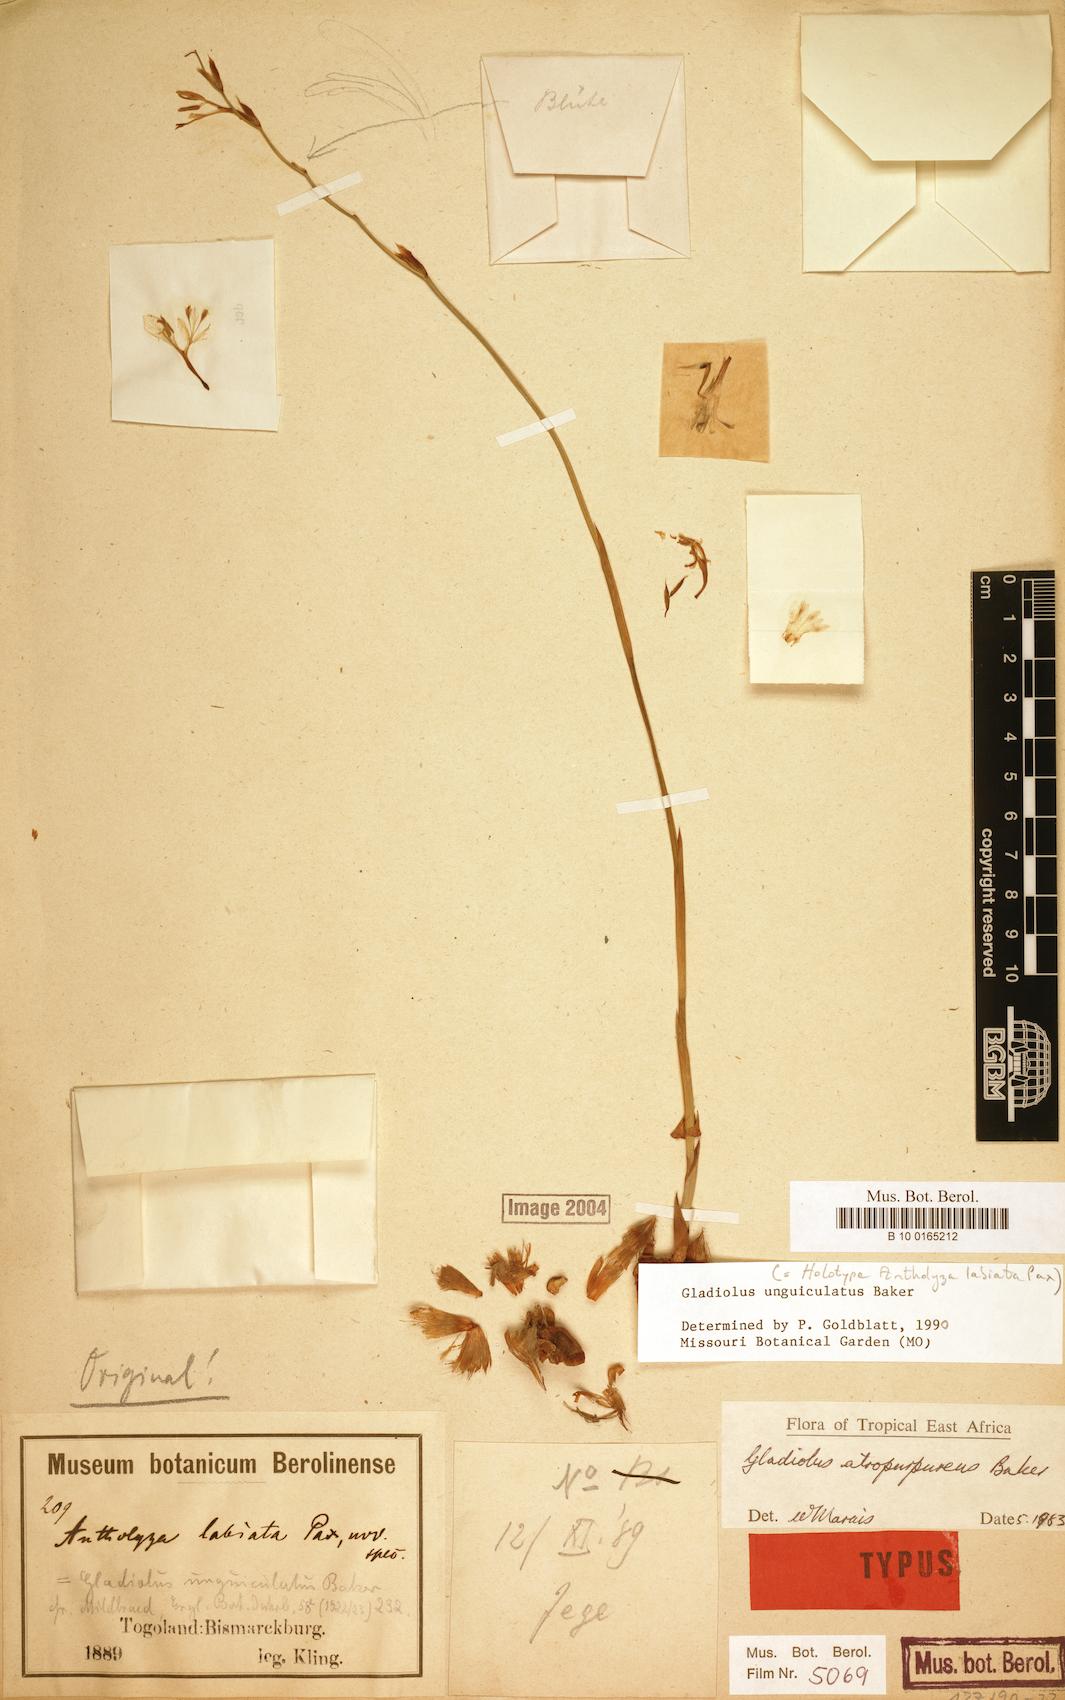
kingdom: Plantae
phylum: Tracheophyta
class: Liliopsida
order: Asparagales
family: Iridaceae
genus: Gladiolus
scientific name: Gladiolus unguiculatus
